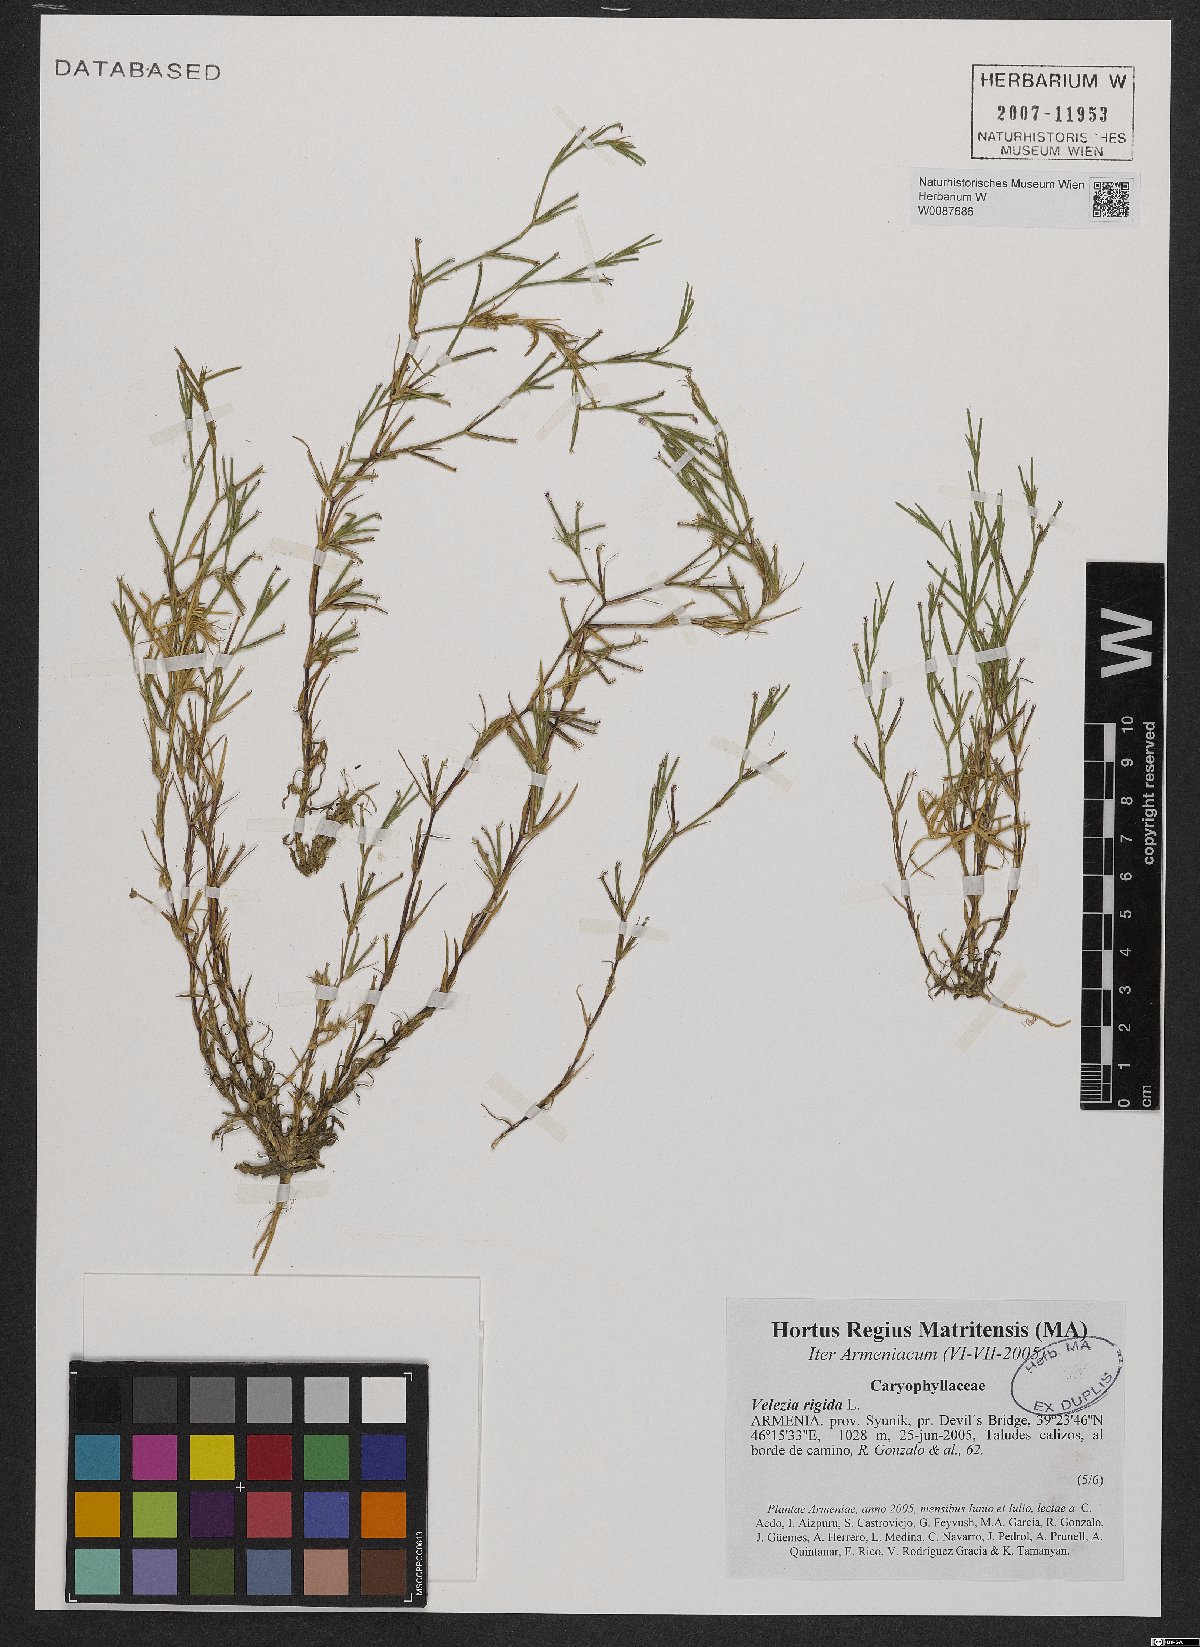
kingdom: Plantae
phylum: Tracheophyta
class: Magnoliopsida
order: Caryophyllales
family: Caryophyllaceae
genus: Dianthus
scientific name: Dianthus nudiflorus
